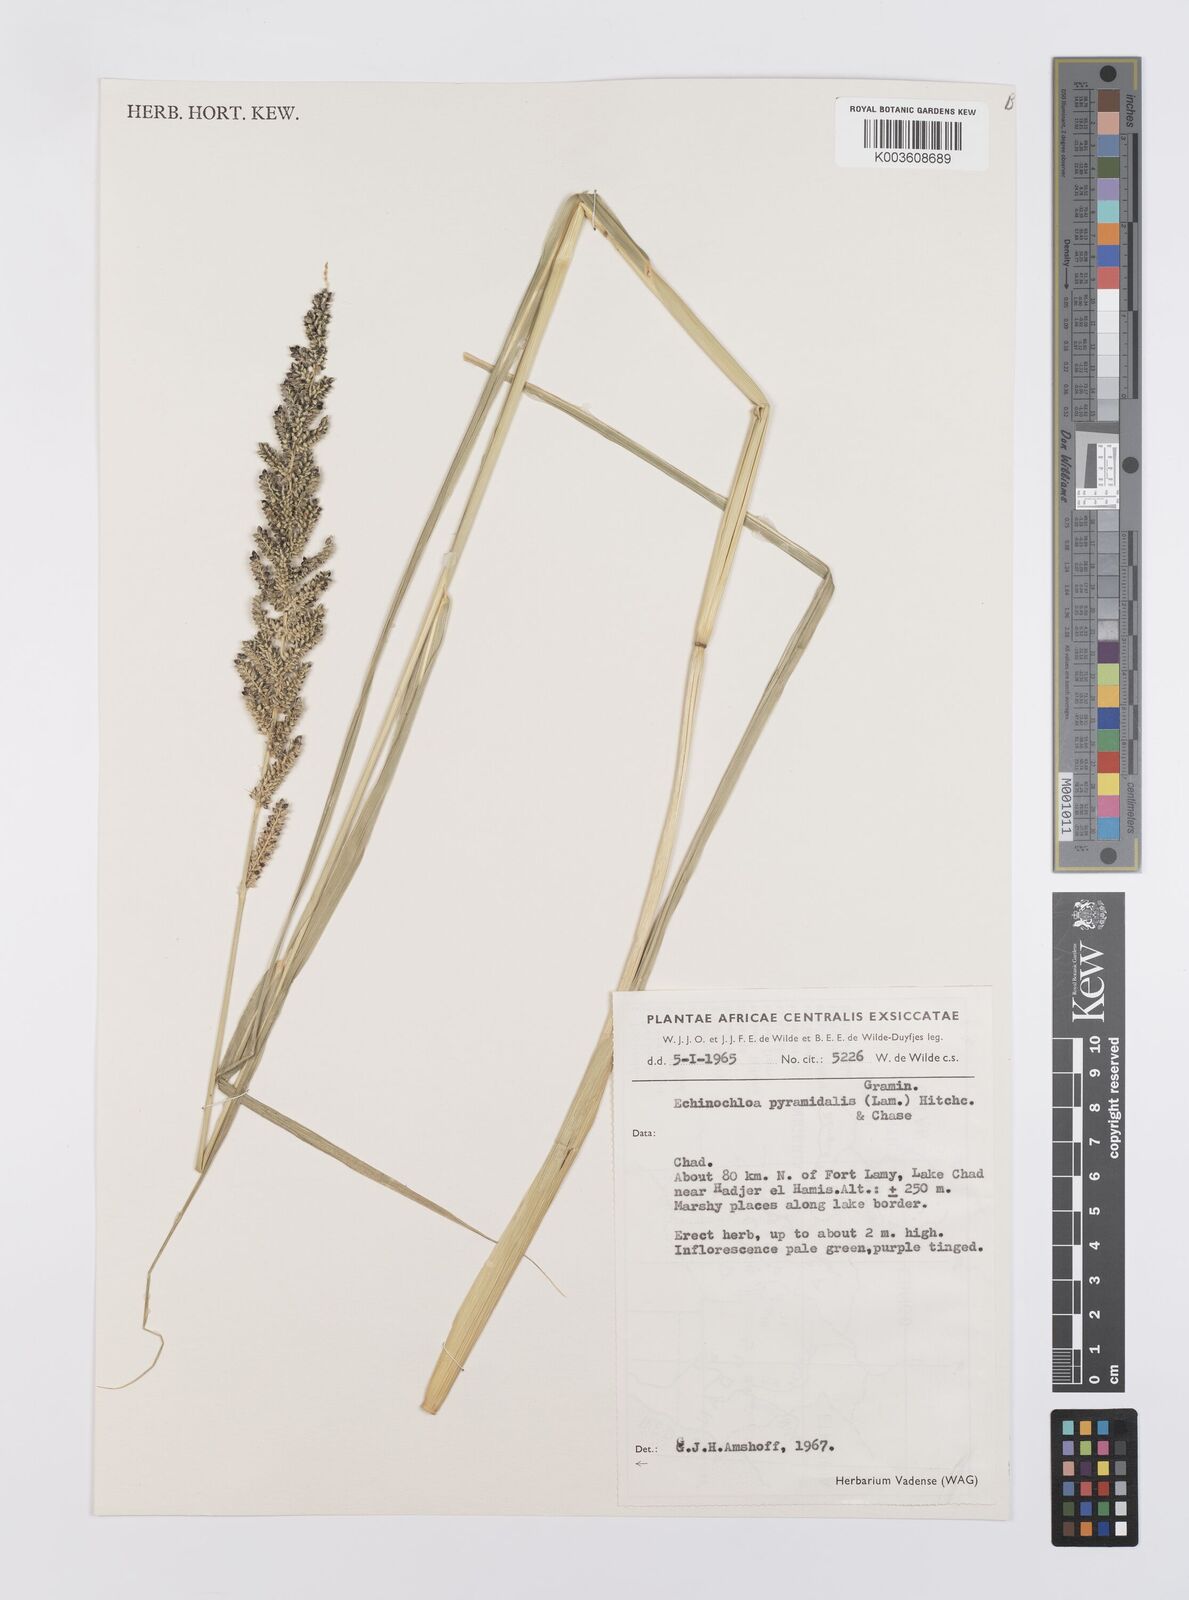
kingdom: Plantae
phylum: Tracheophyta
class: Liliopsida
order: Poales
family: Poaceae
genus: Echinochloa
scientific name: Echinochloa pyramidalis
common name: Antelope grass
